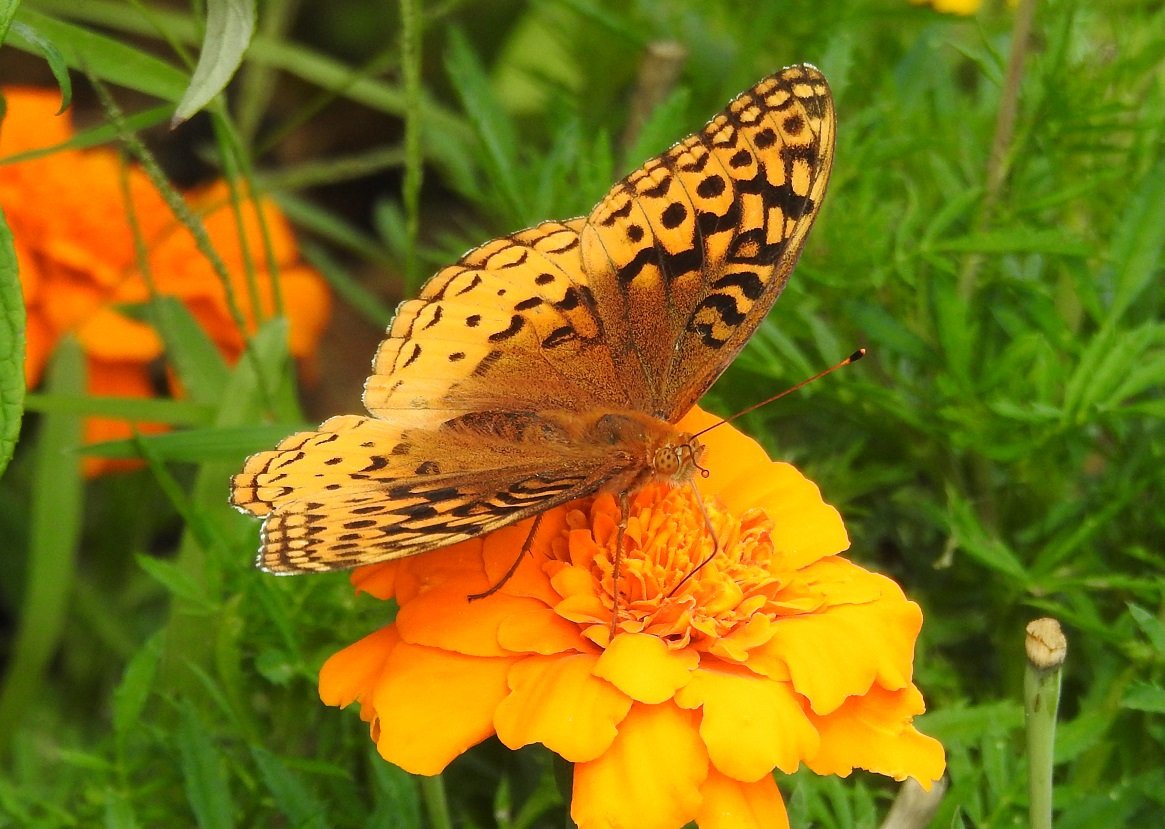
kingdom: Animalia
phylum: Arthropoda
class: Insecta
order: Lepidoptera
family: Nymphalidae
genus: Speyeria
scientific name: Speyeria cybele
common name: Great Spangled Fritillary
